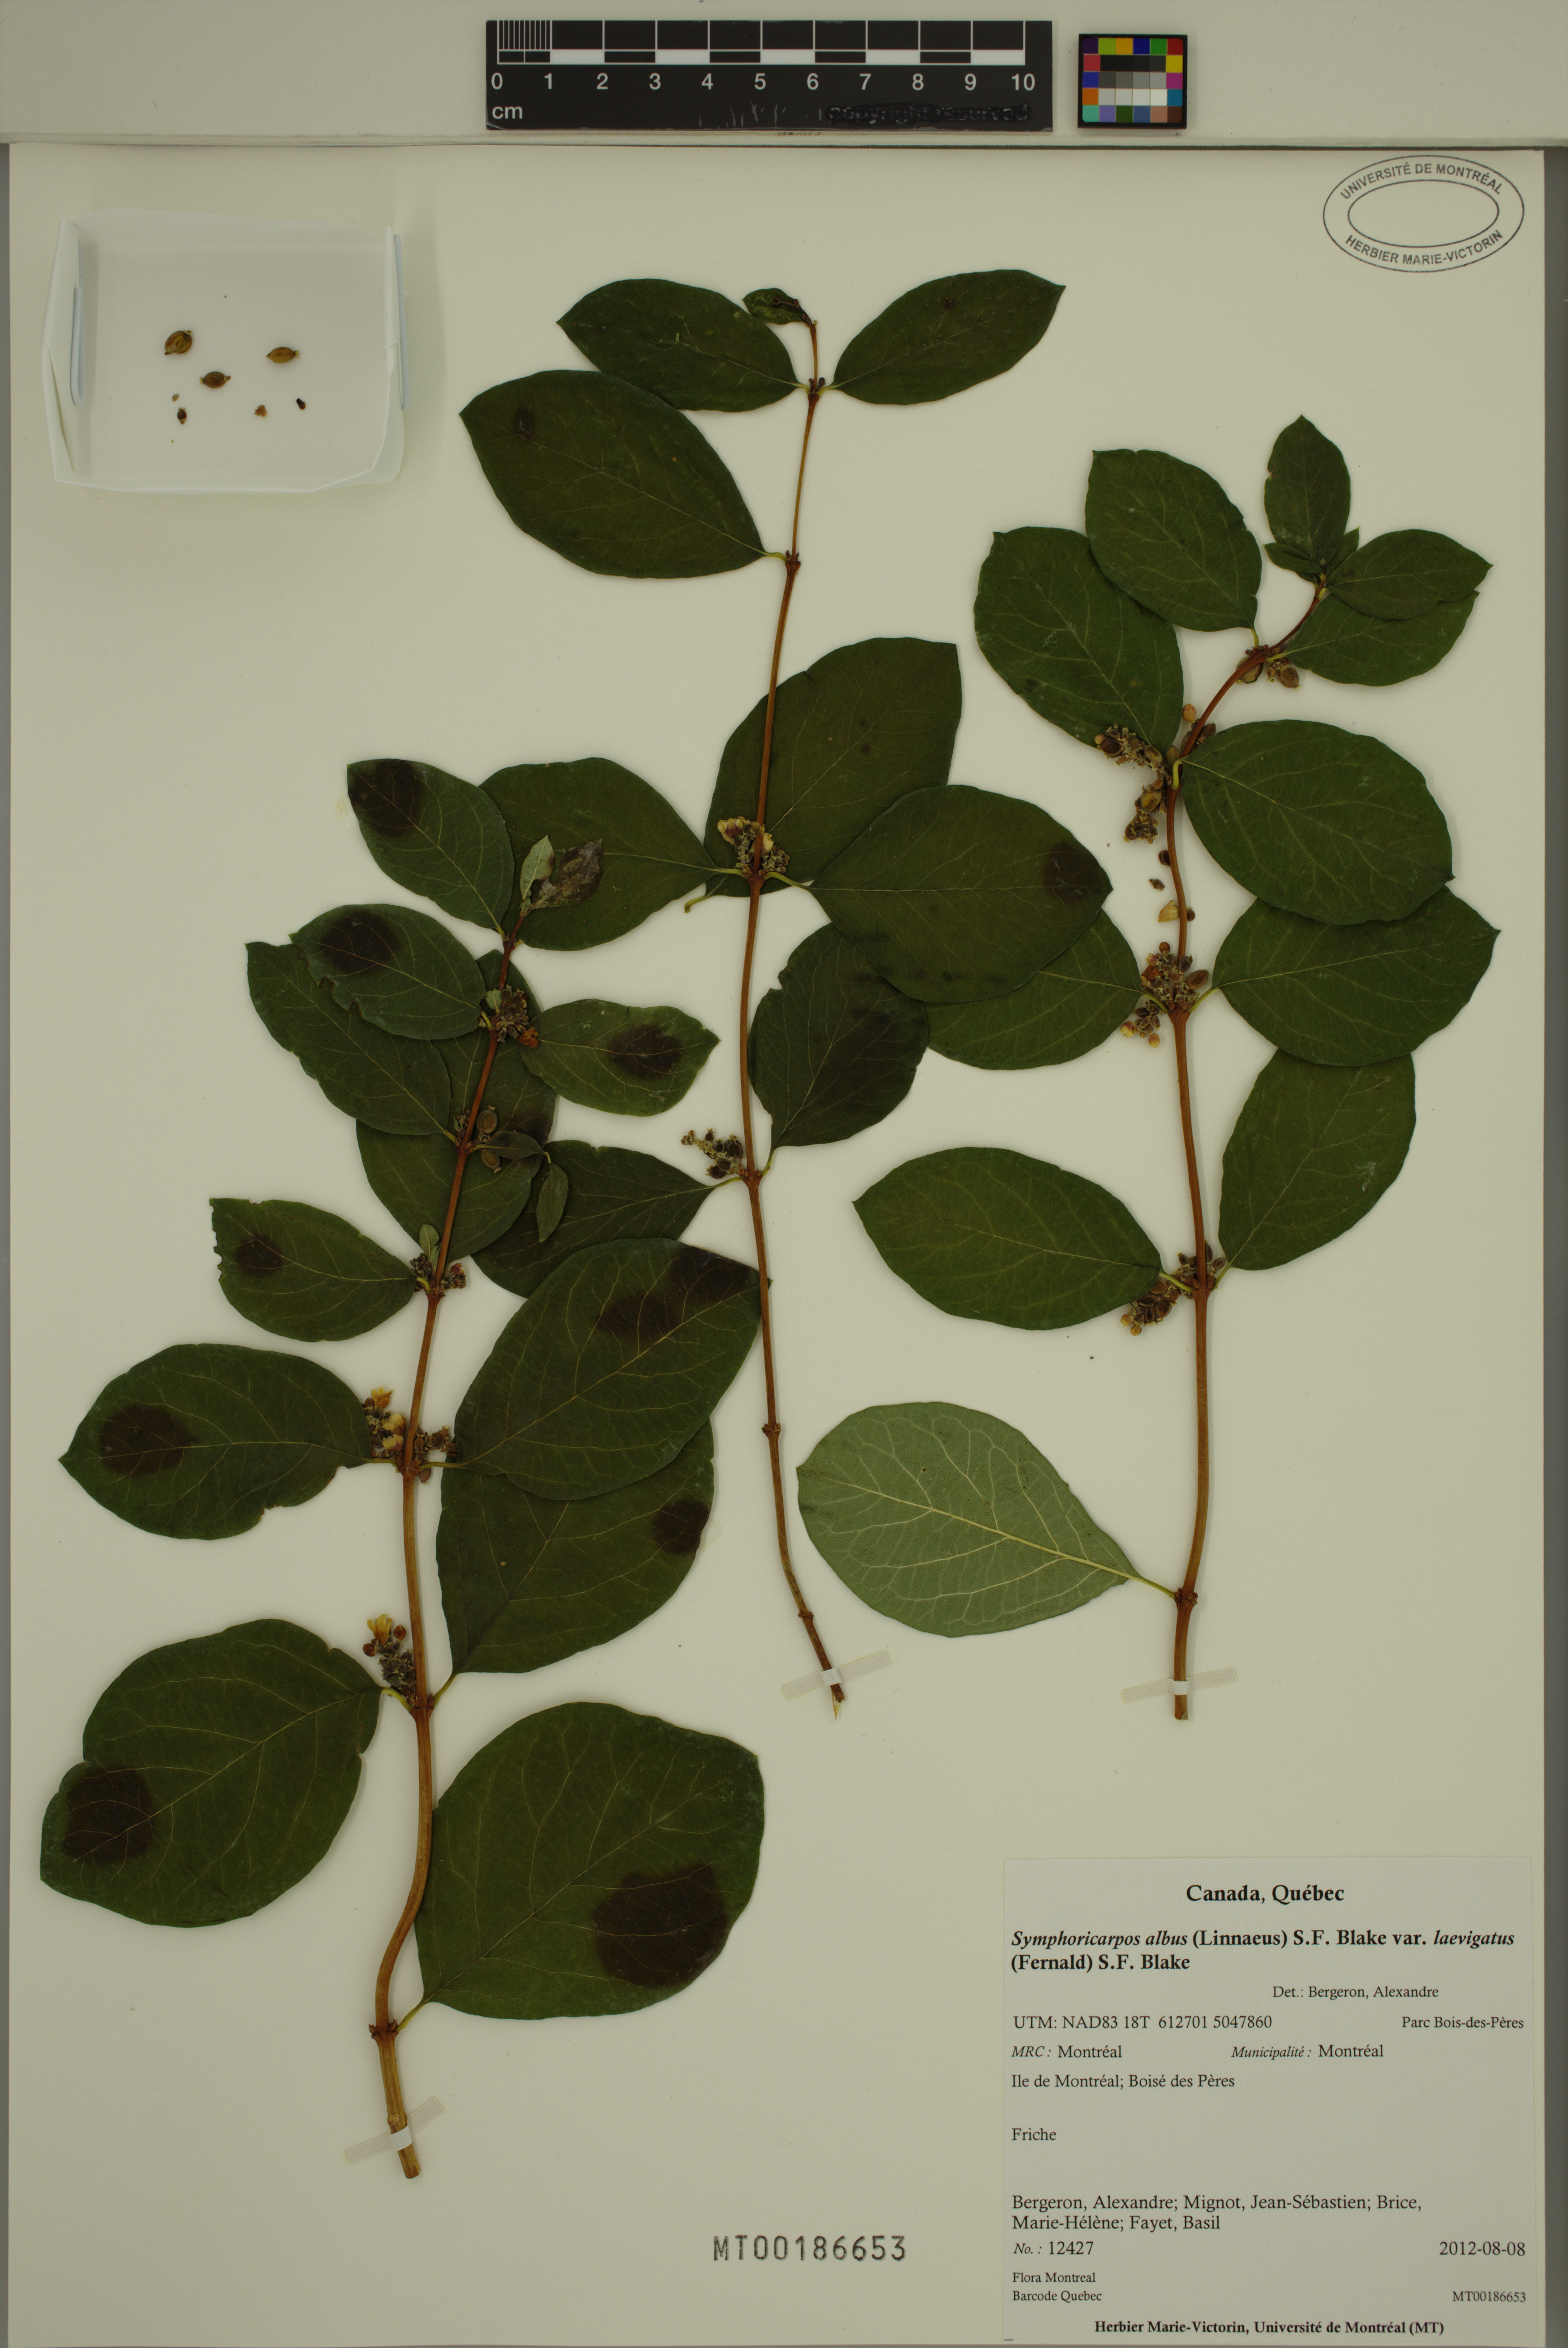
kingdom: Plantae
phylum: Tracheophyta
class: Magnoliopsida
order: Dipsacales
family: Caprifoliaceae
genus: Symphoricarpos
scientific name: Symphoricarpos albus
